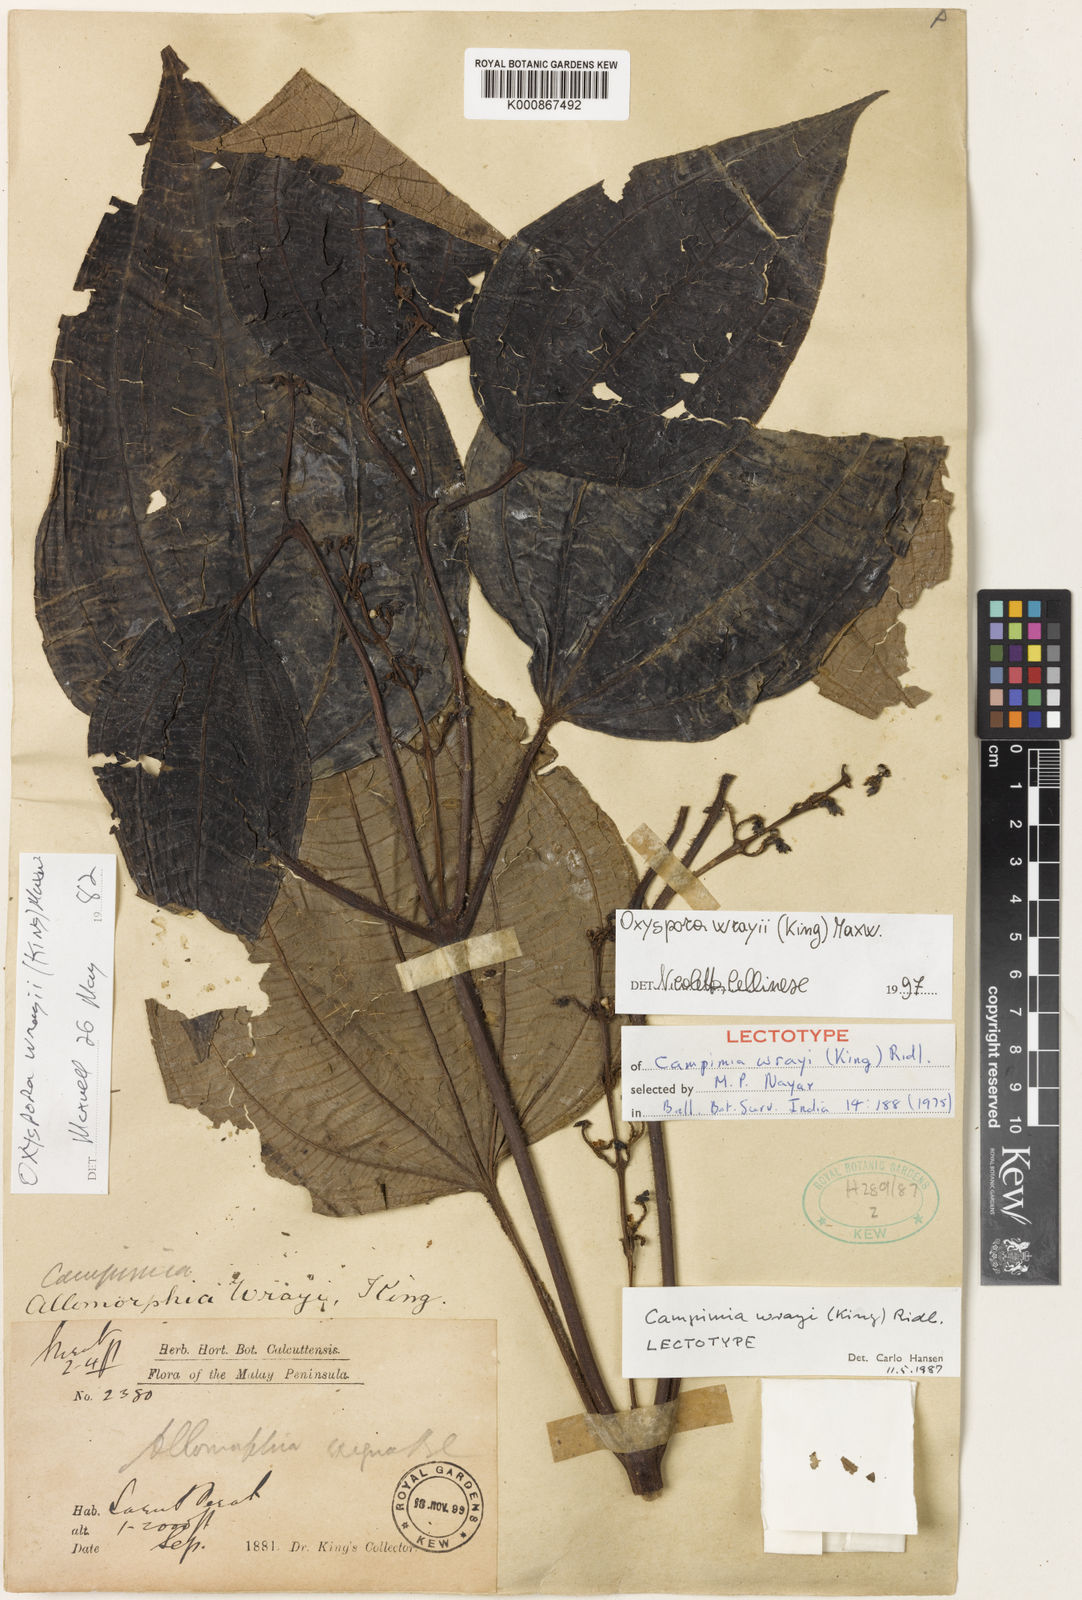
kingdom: Plantae
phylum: Tracheophyta
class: Magnoliopsida
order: Myrtales
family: Melastomataceae
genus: Campimia
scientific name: Campimia wrayi
